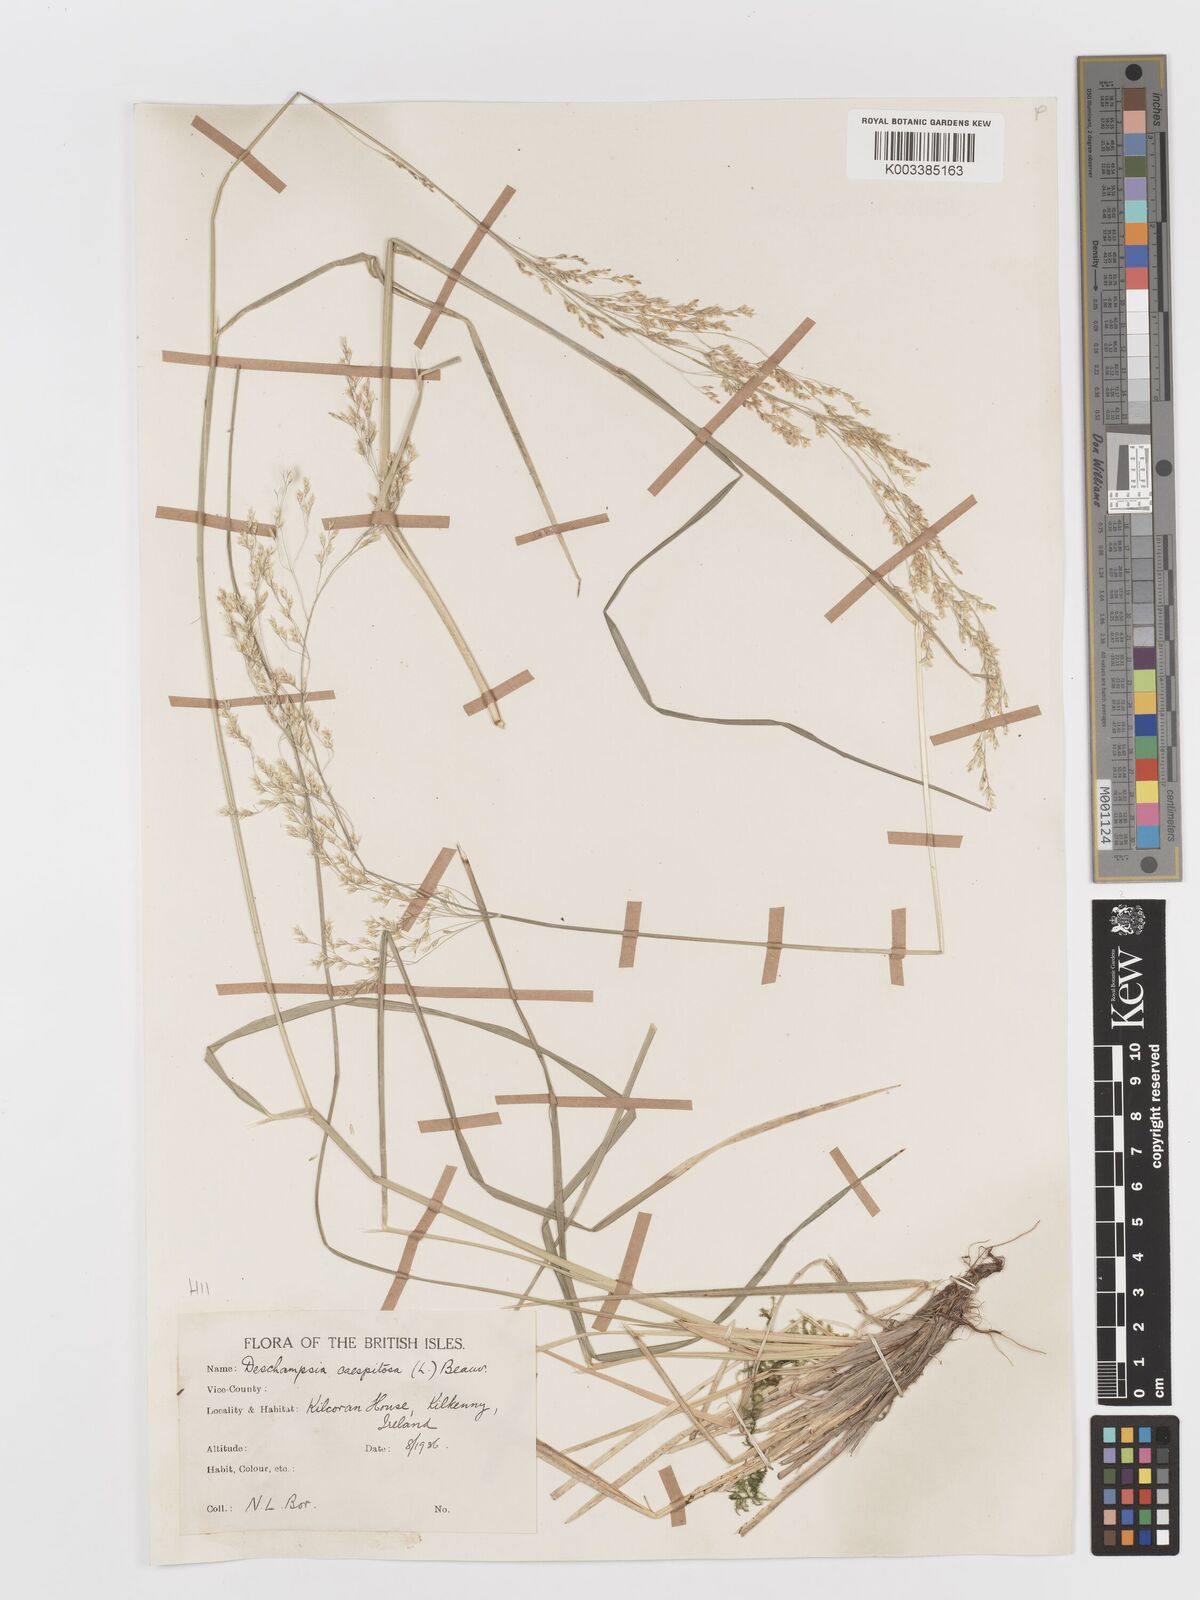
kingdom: Plantae
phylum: Tracheophyta
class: Liliopsida
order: Poales
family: Poaceae
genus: Deschampsia
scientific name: Deschampsia cespitosa
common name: Tufted hair-grass
